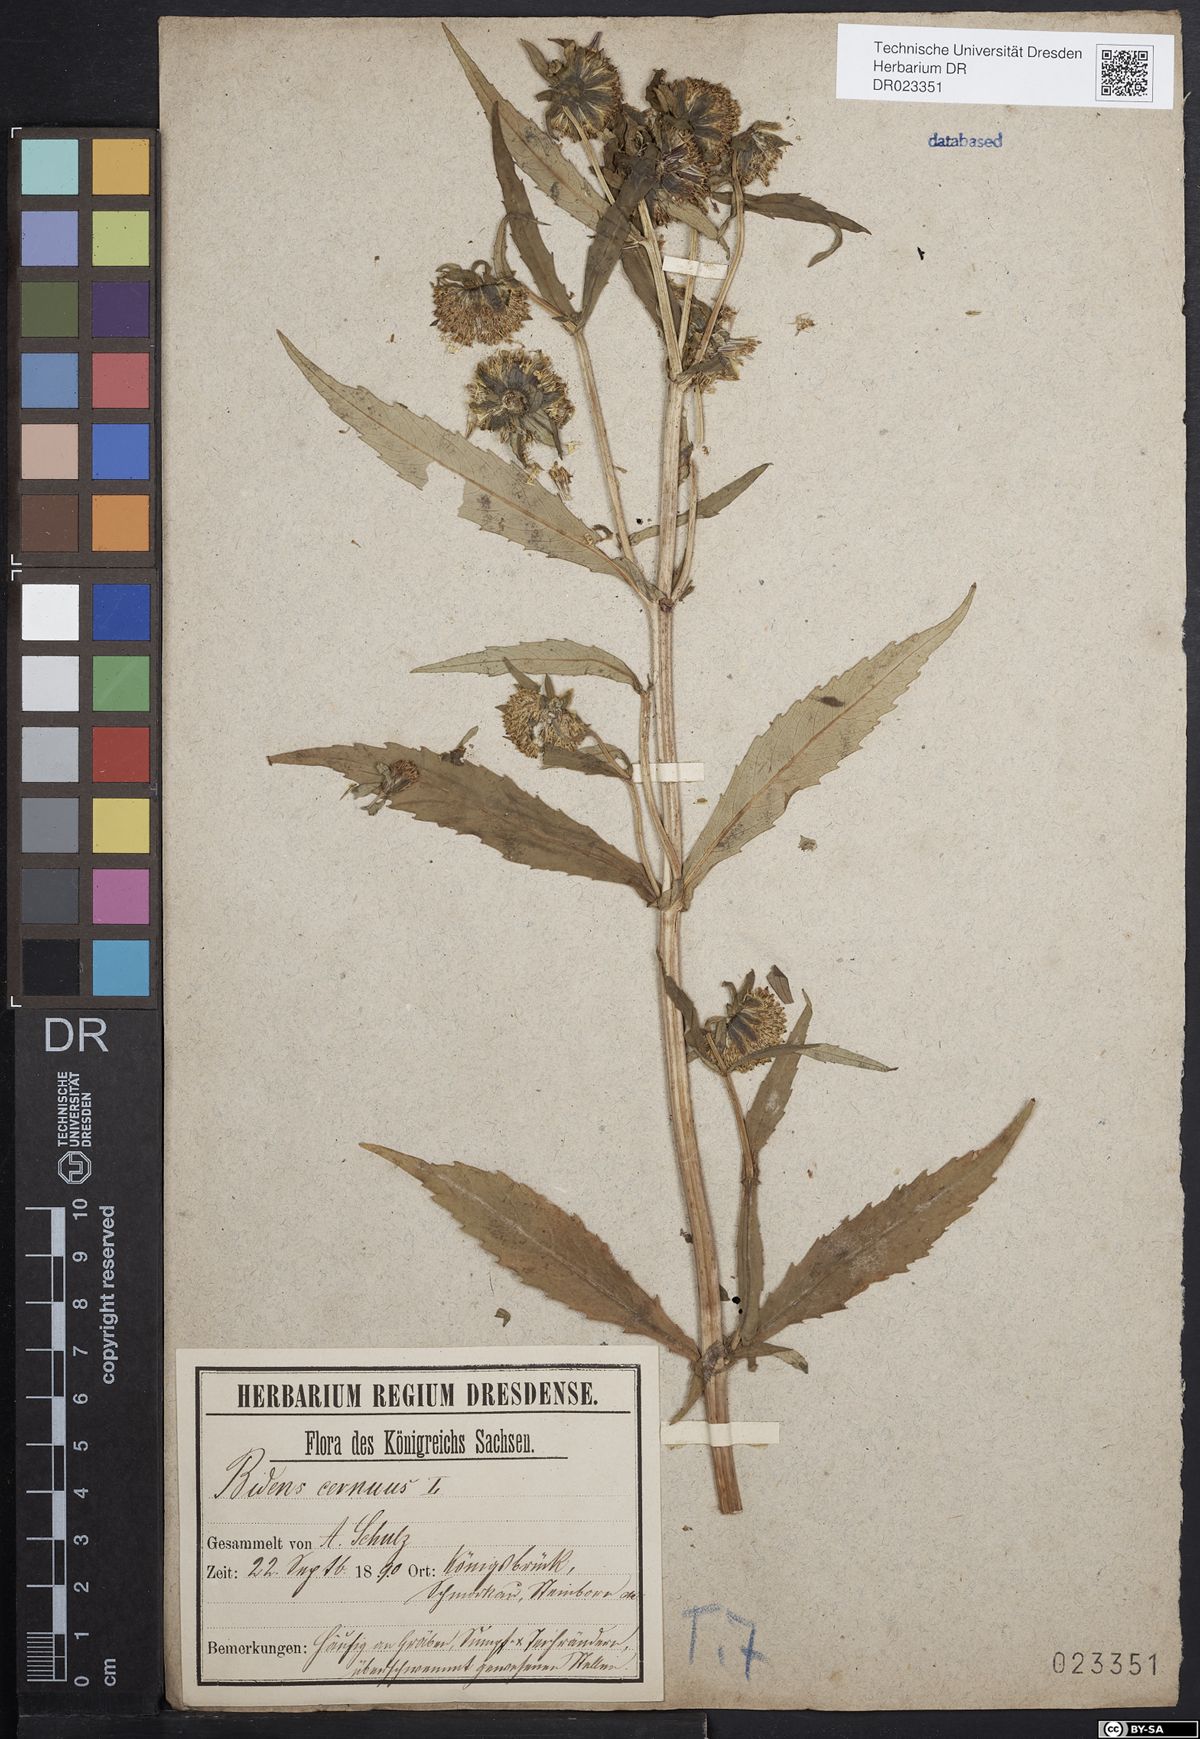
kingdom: Plantae
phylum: Tracheophyta
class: Magnoliopsida
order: Asterales
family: Asteraceae
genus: Bidens
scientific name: Bidens cernua
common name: Nodding bur-marigold
